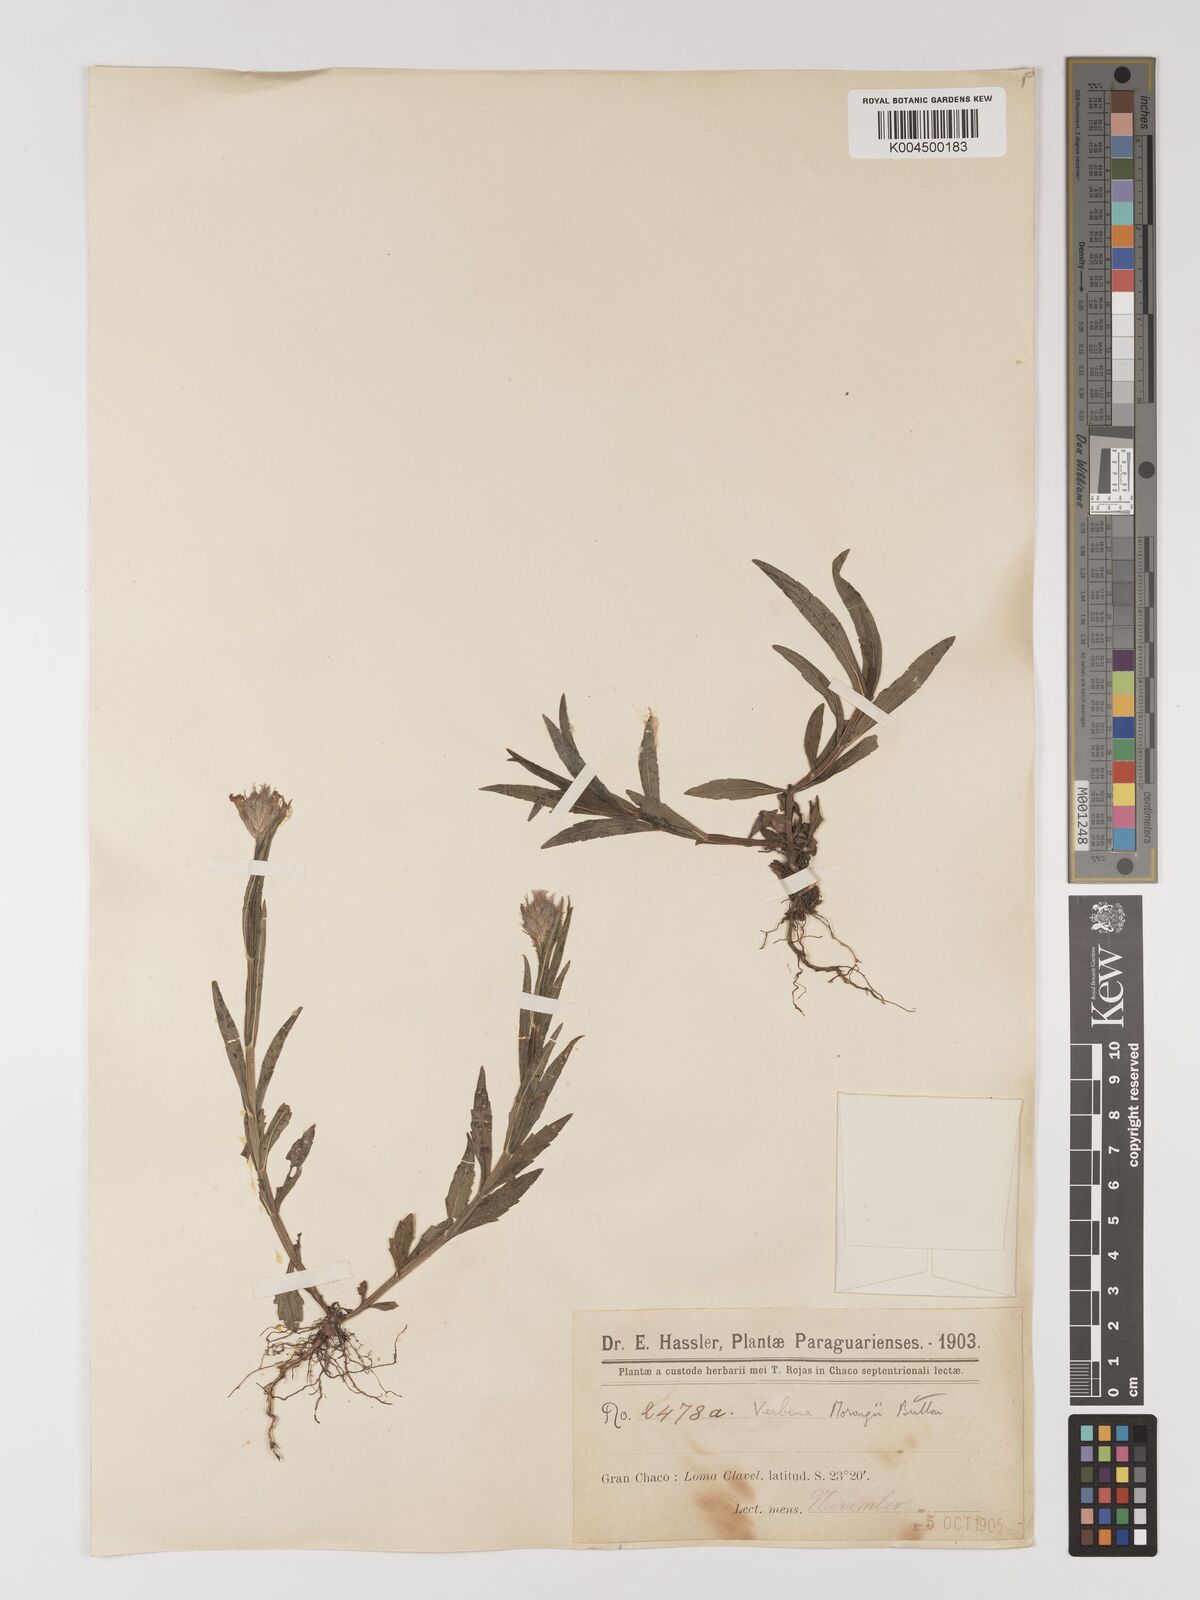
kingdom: Plantae
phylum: Tracheophyta
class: Magnoliopsida
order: Lamiales
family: Verbenaceae
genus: Verbena
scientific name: Verbena
